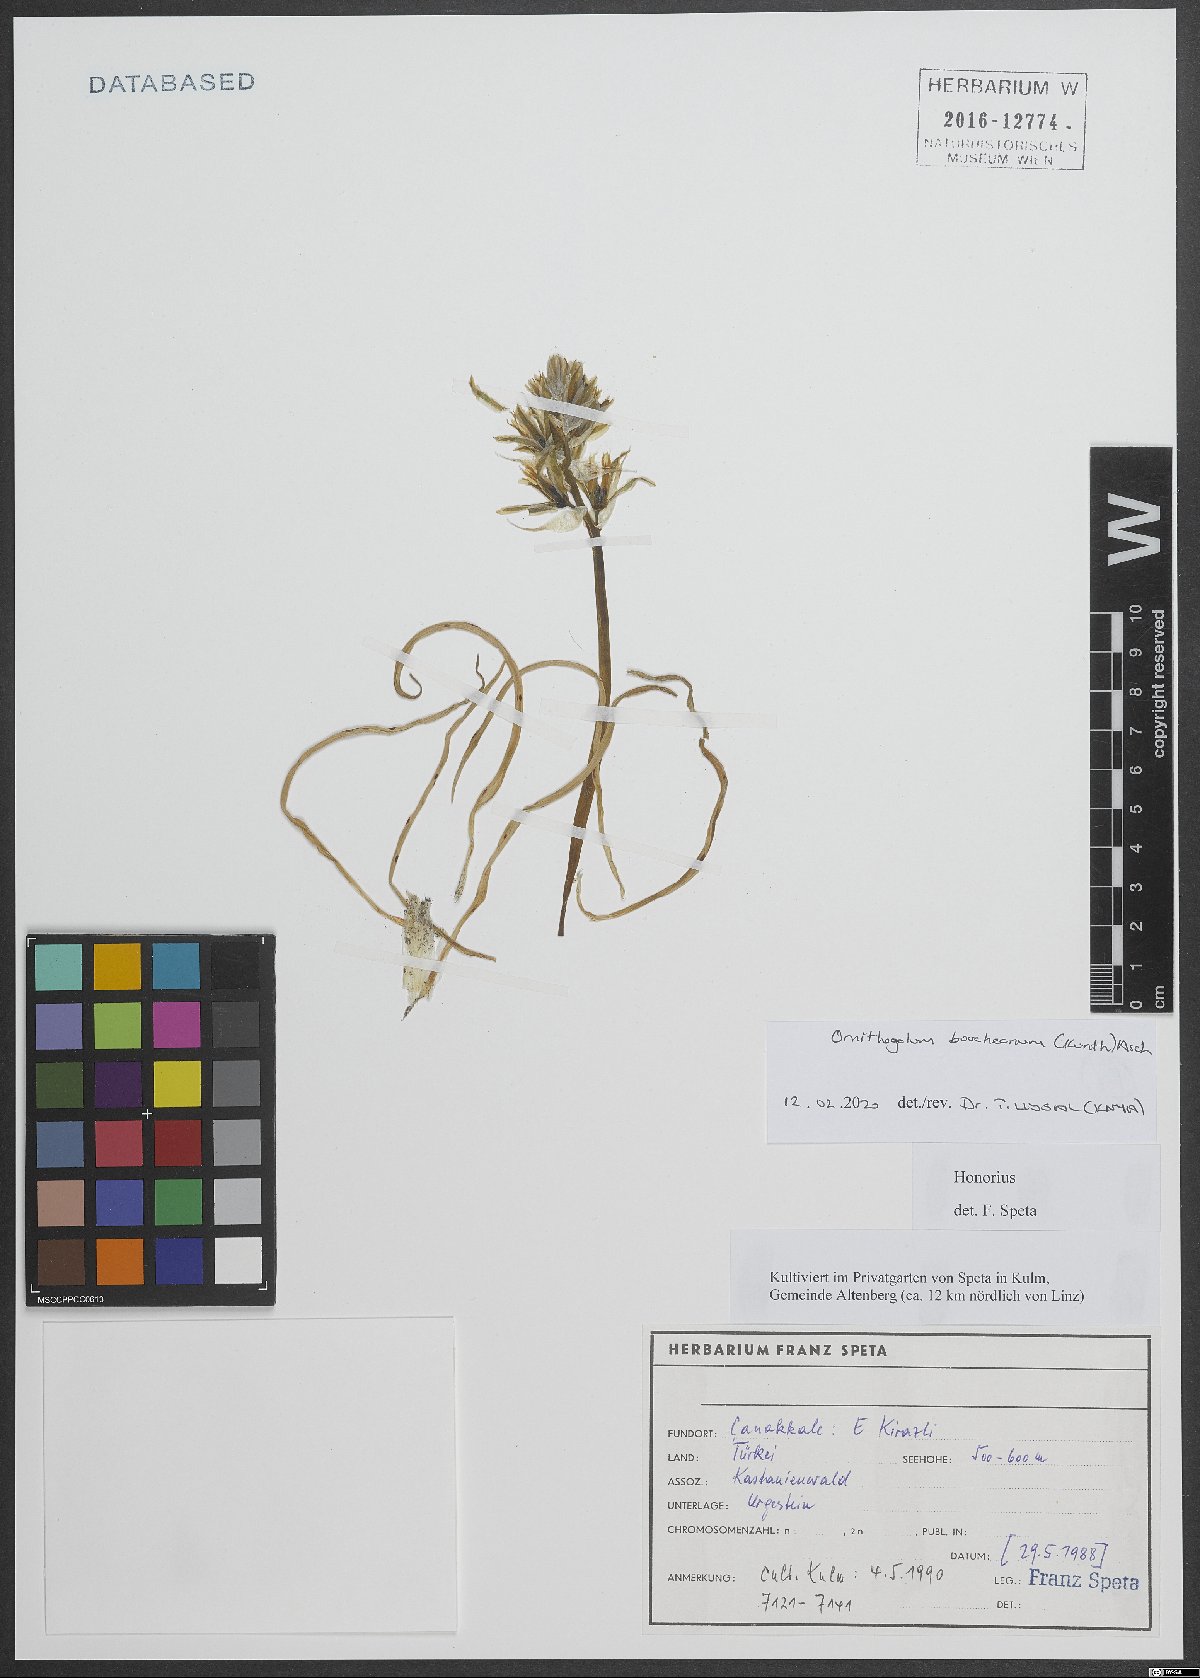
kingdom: Plantae
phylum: Tracheophyta
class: Liliopsida
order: Asparagales
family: Asparagaceae
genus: Ornithogalum
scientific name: Ornithogalum boucheanum
